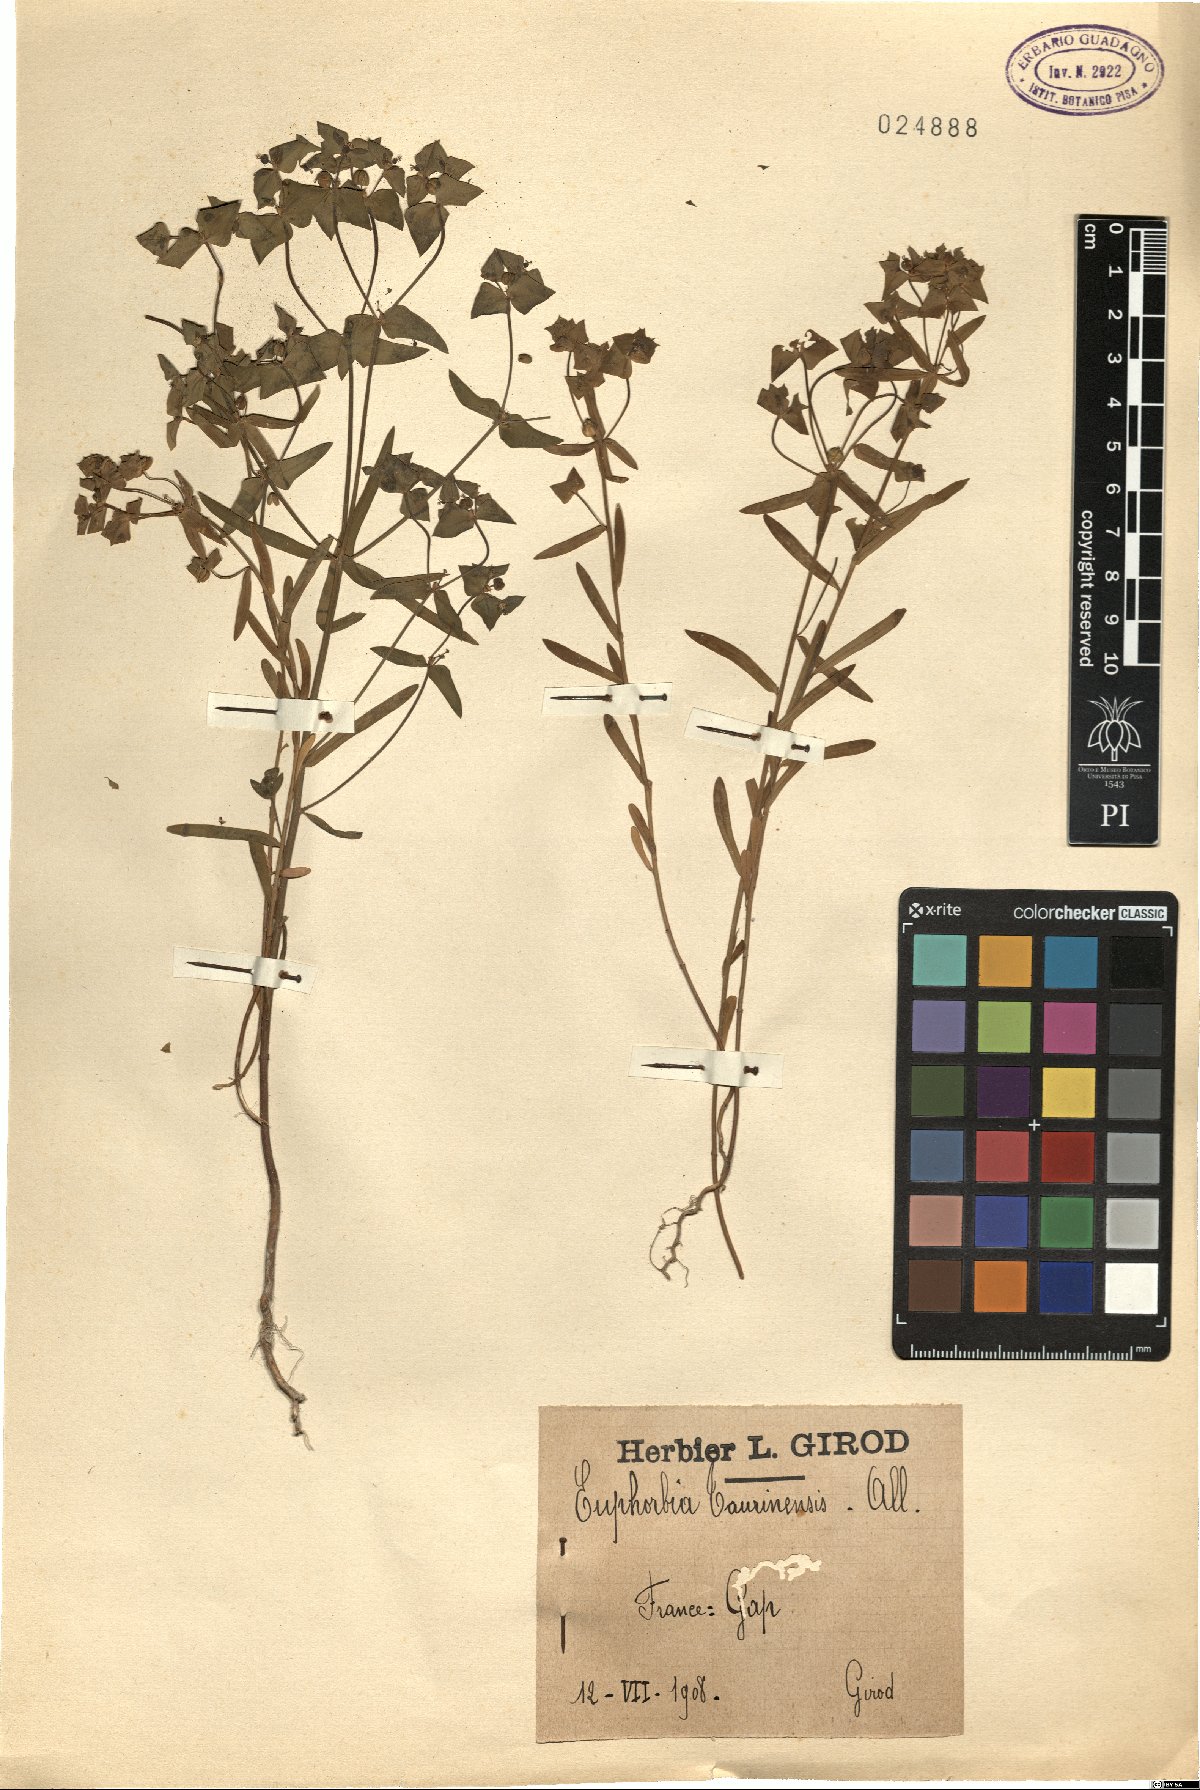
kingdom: Plantae
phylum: Tracheophyta
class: Magnoliopsida
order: Malpighiales
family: Euphorbiaceae
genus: Euphorbia
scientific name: Euphorbia taurinensis
